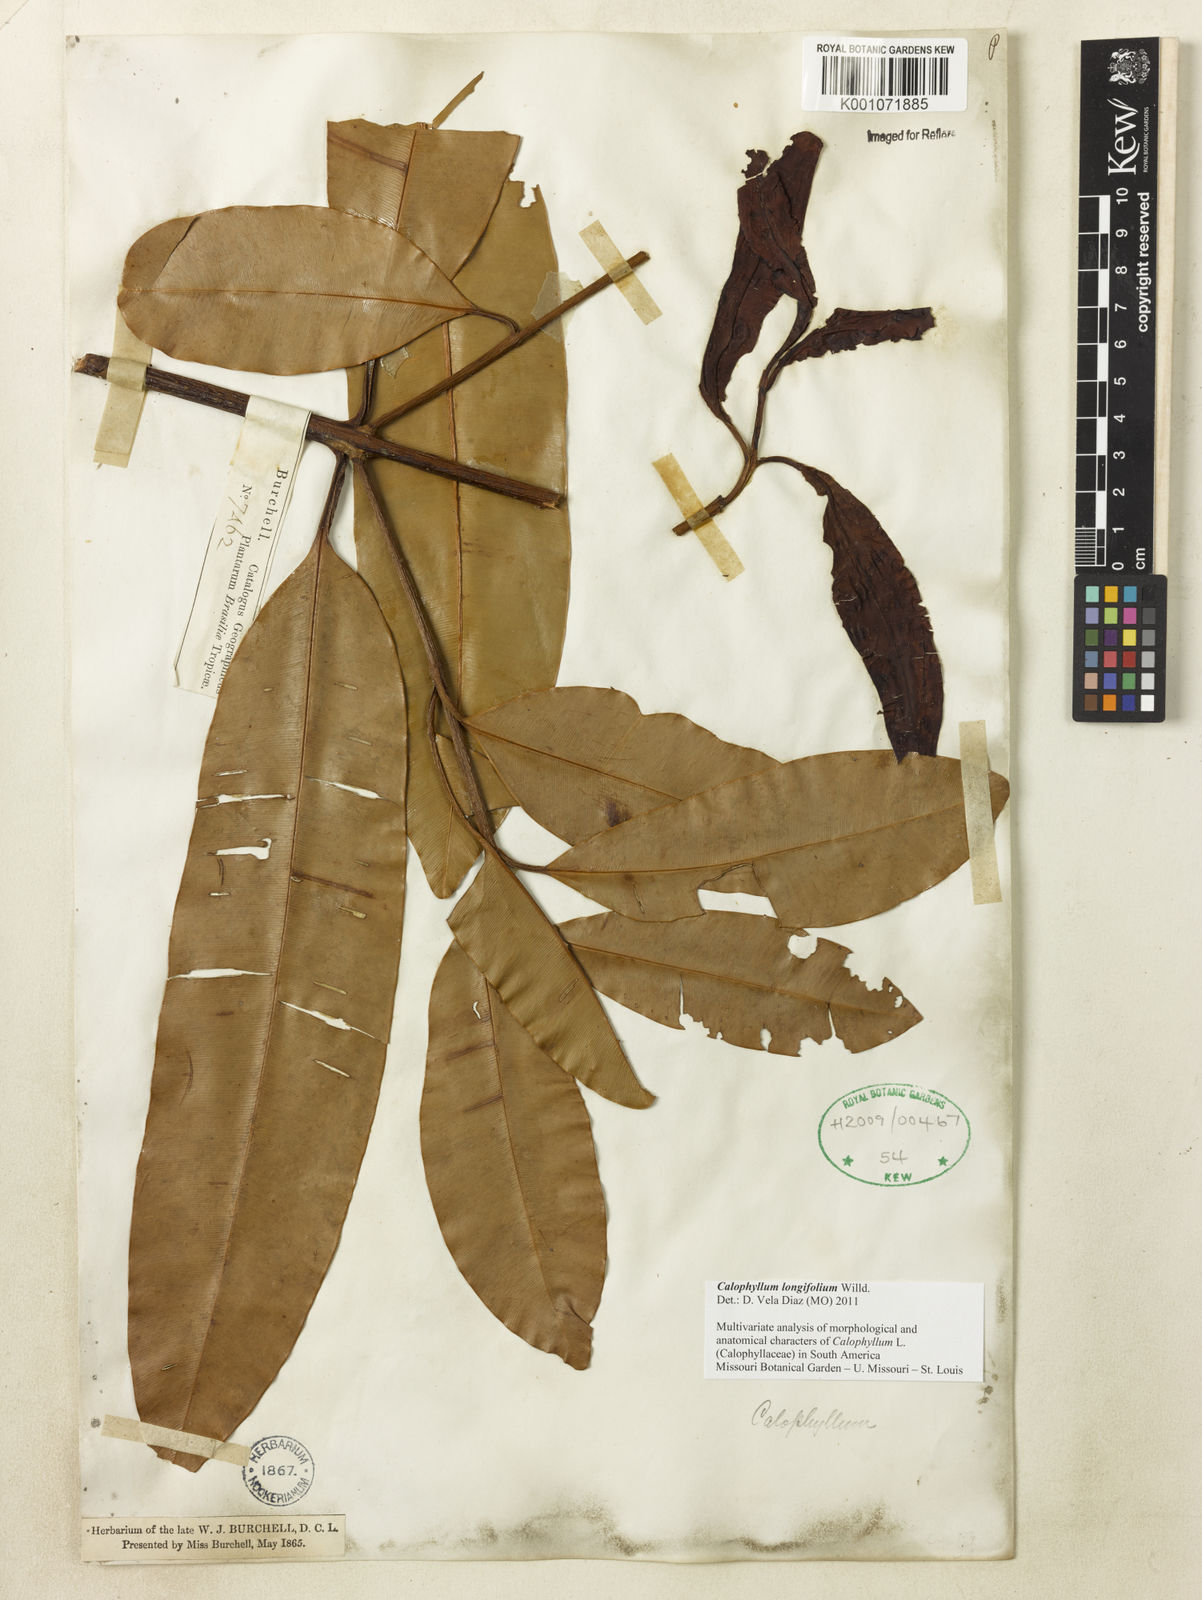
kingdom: Plantae
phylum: Tracheophyta
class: Magnoliopsida
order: Malpighiales
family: Calophyllaceae
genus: Calophyllum
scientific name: Calophyllum longifolium
